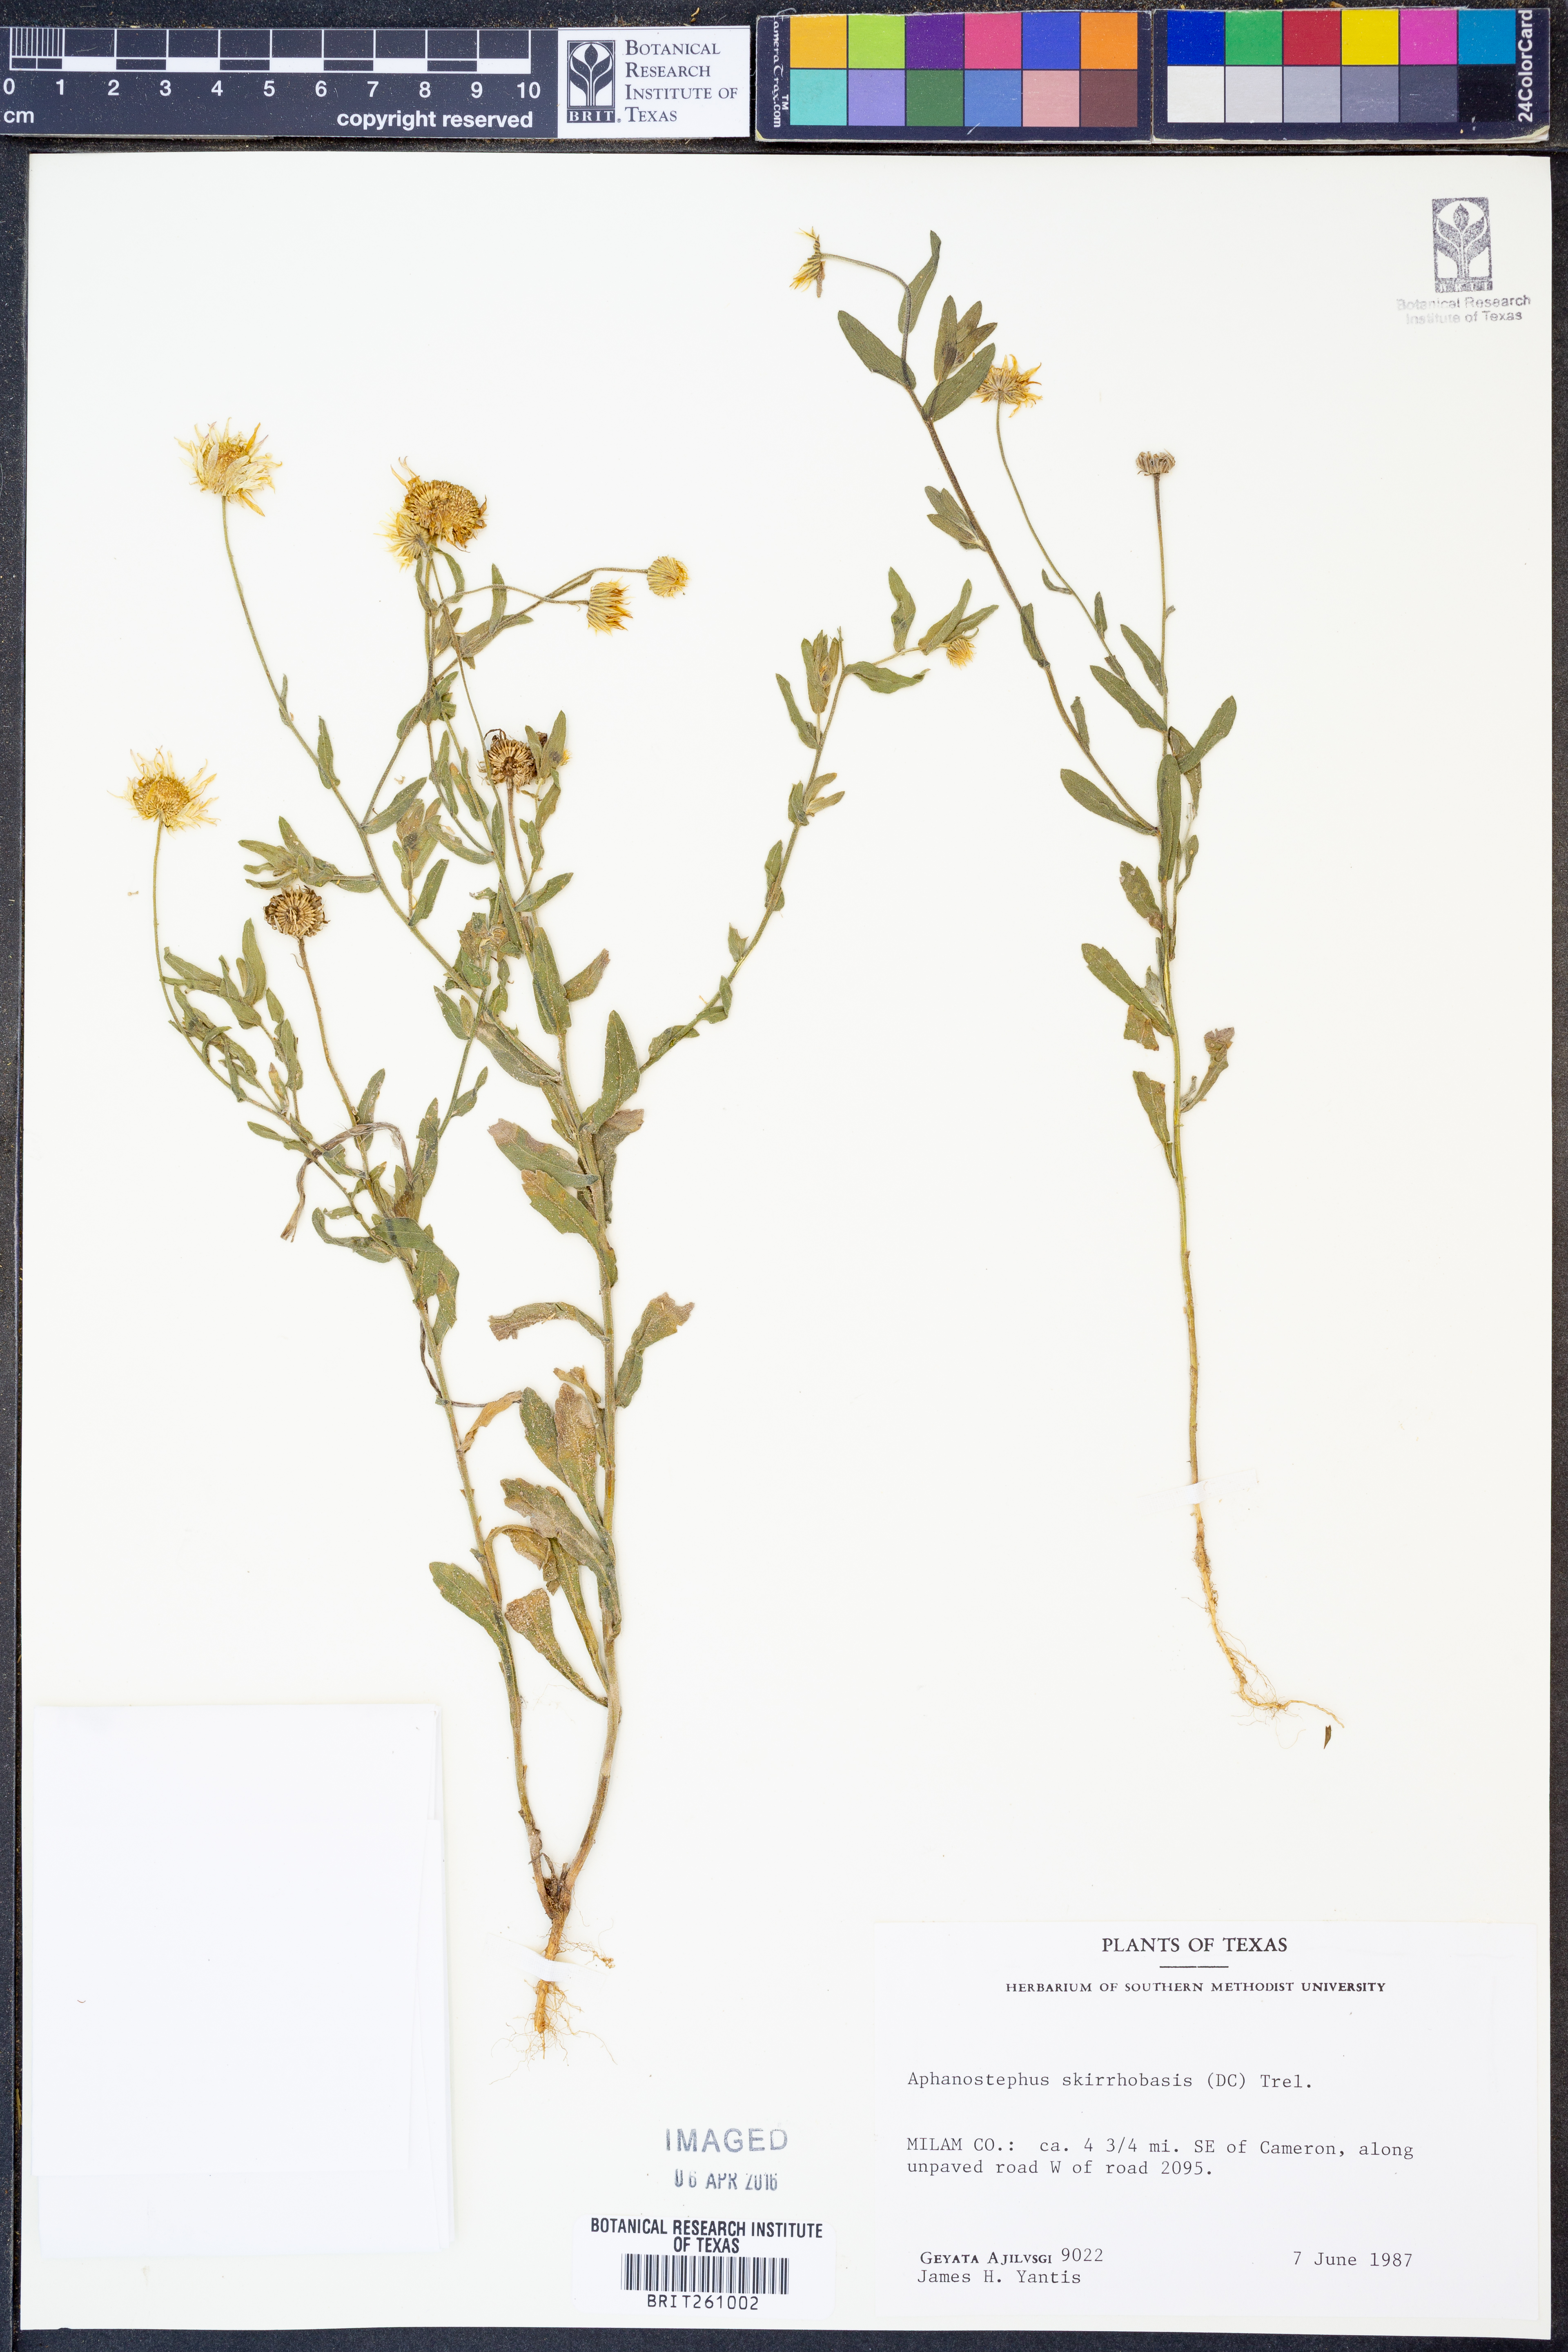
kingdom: Plantae
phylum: Tracheophyta
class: Magnoliopsida
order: Asterales
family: Asteraceae
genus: Aphanostephus
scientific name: Aphanostephus skirrhobasis
